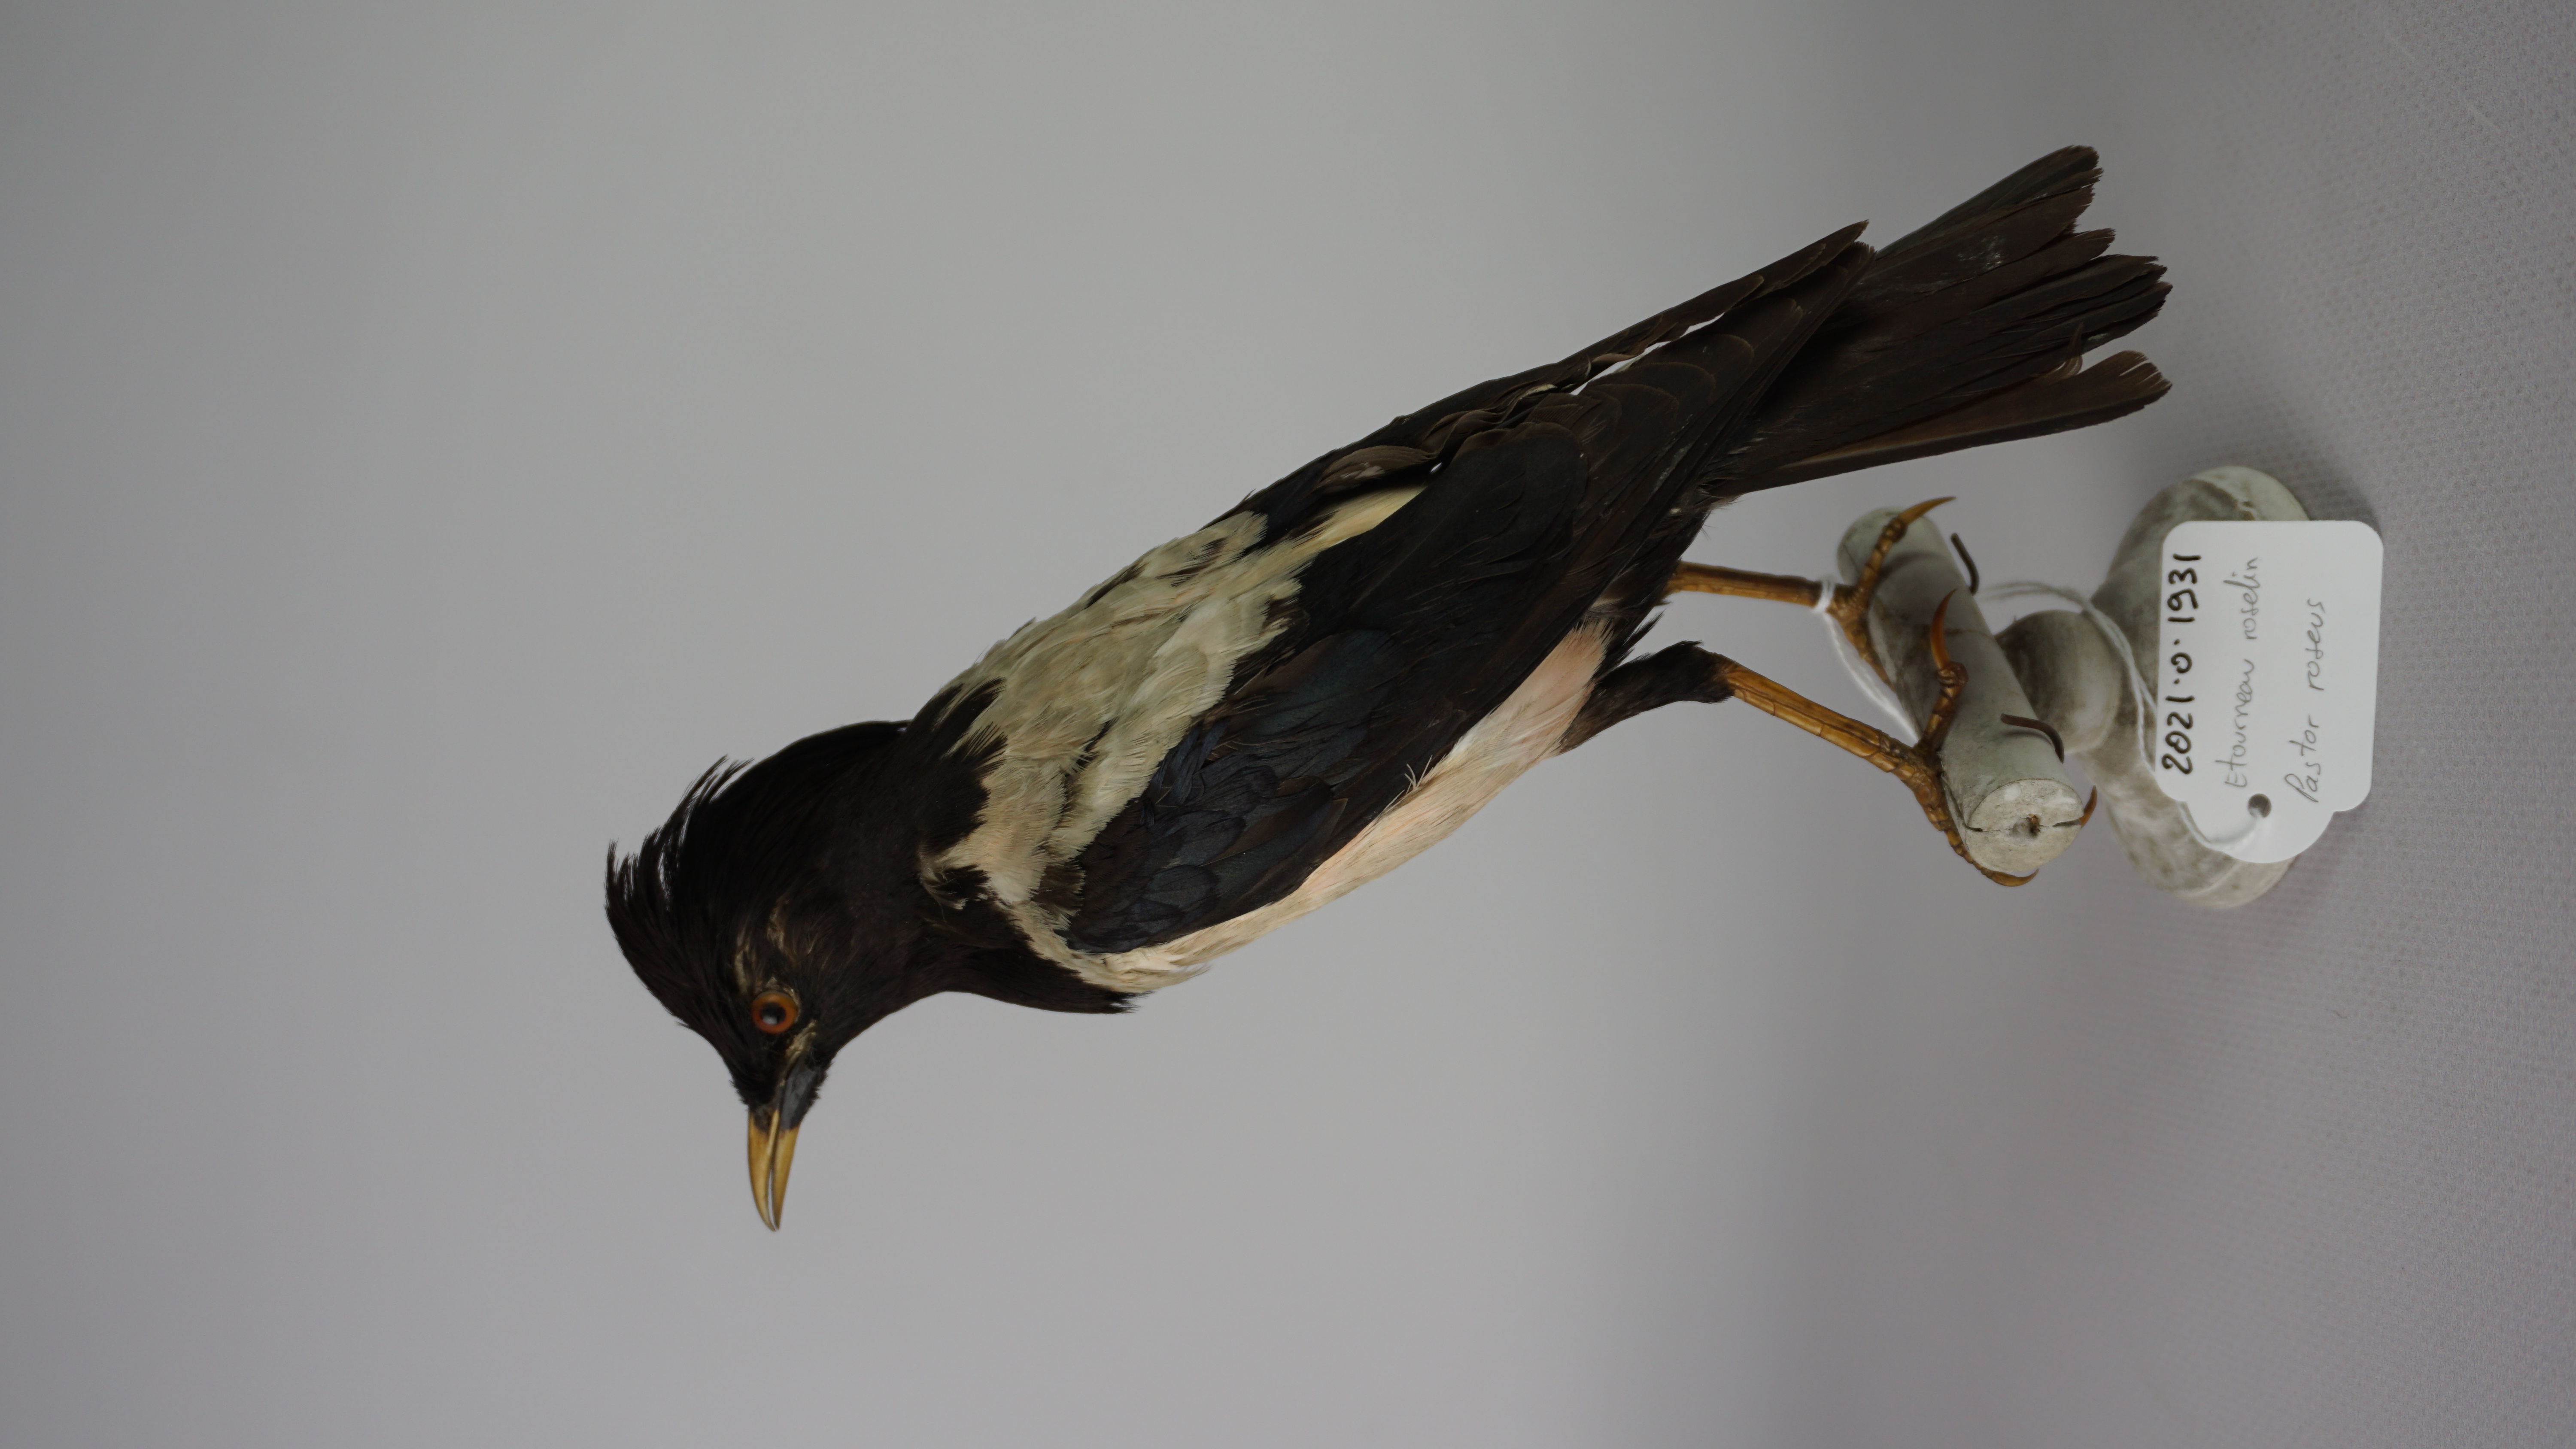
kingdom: Animalia
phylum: Chordata
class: Aves
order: Passeriformes
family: Sturnidae
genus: Pastor
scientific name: Pastor roseus
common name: Rosy starling
